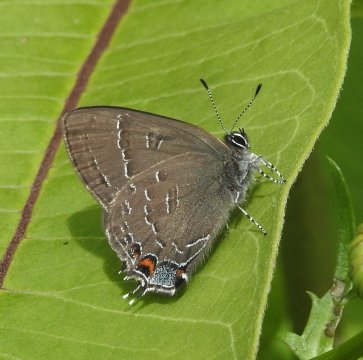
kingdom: Animalia
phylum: Arthropoda
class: Insecta
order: Lepidoptera
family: Lycaenidae
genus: Satyrium
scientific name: Satyrium calanus
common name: Banded Hairstreak
